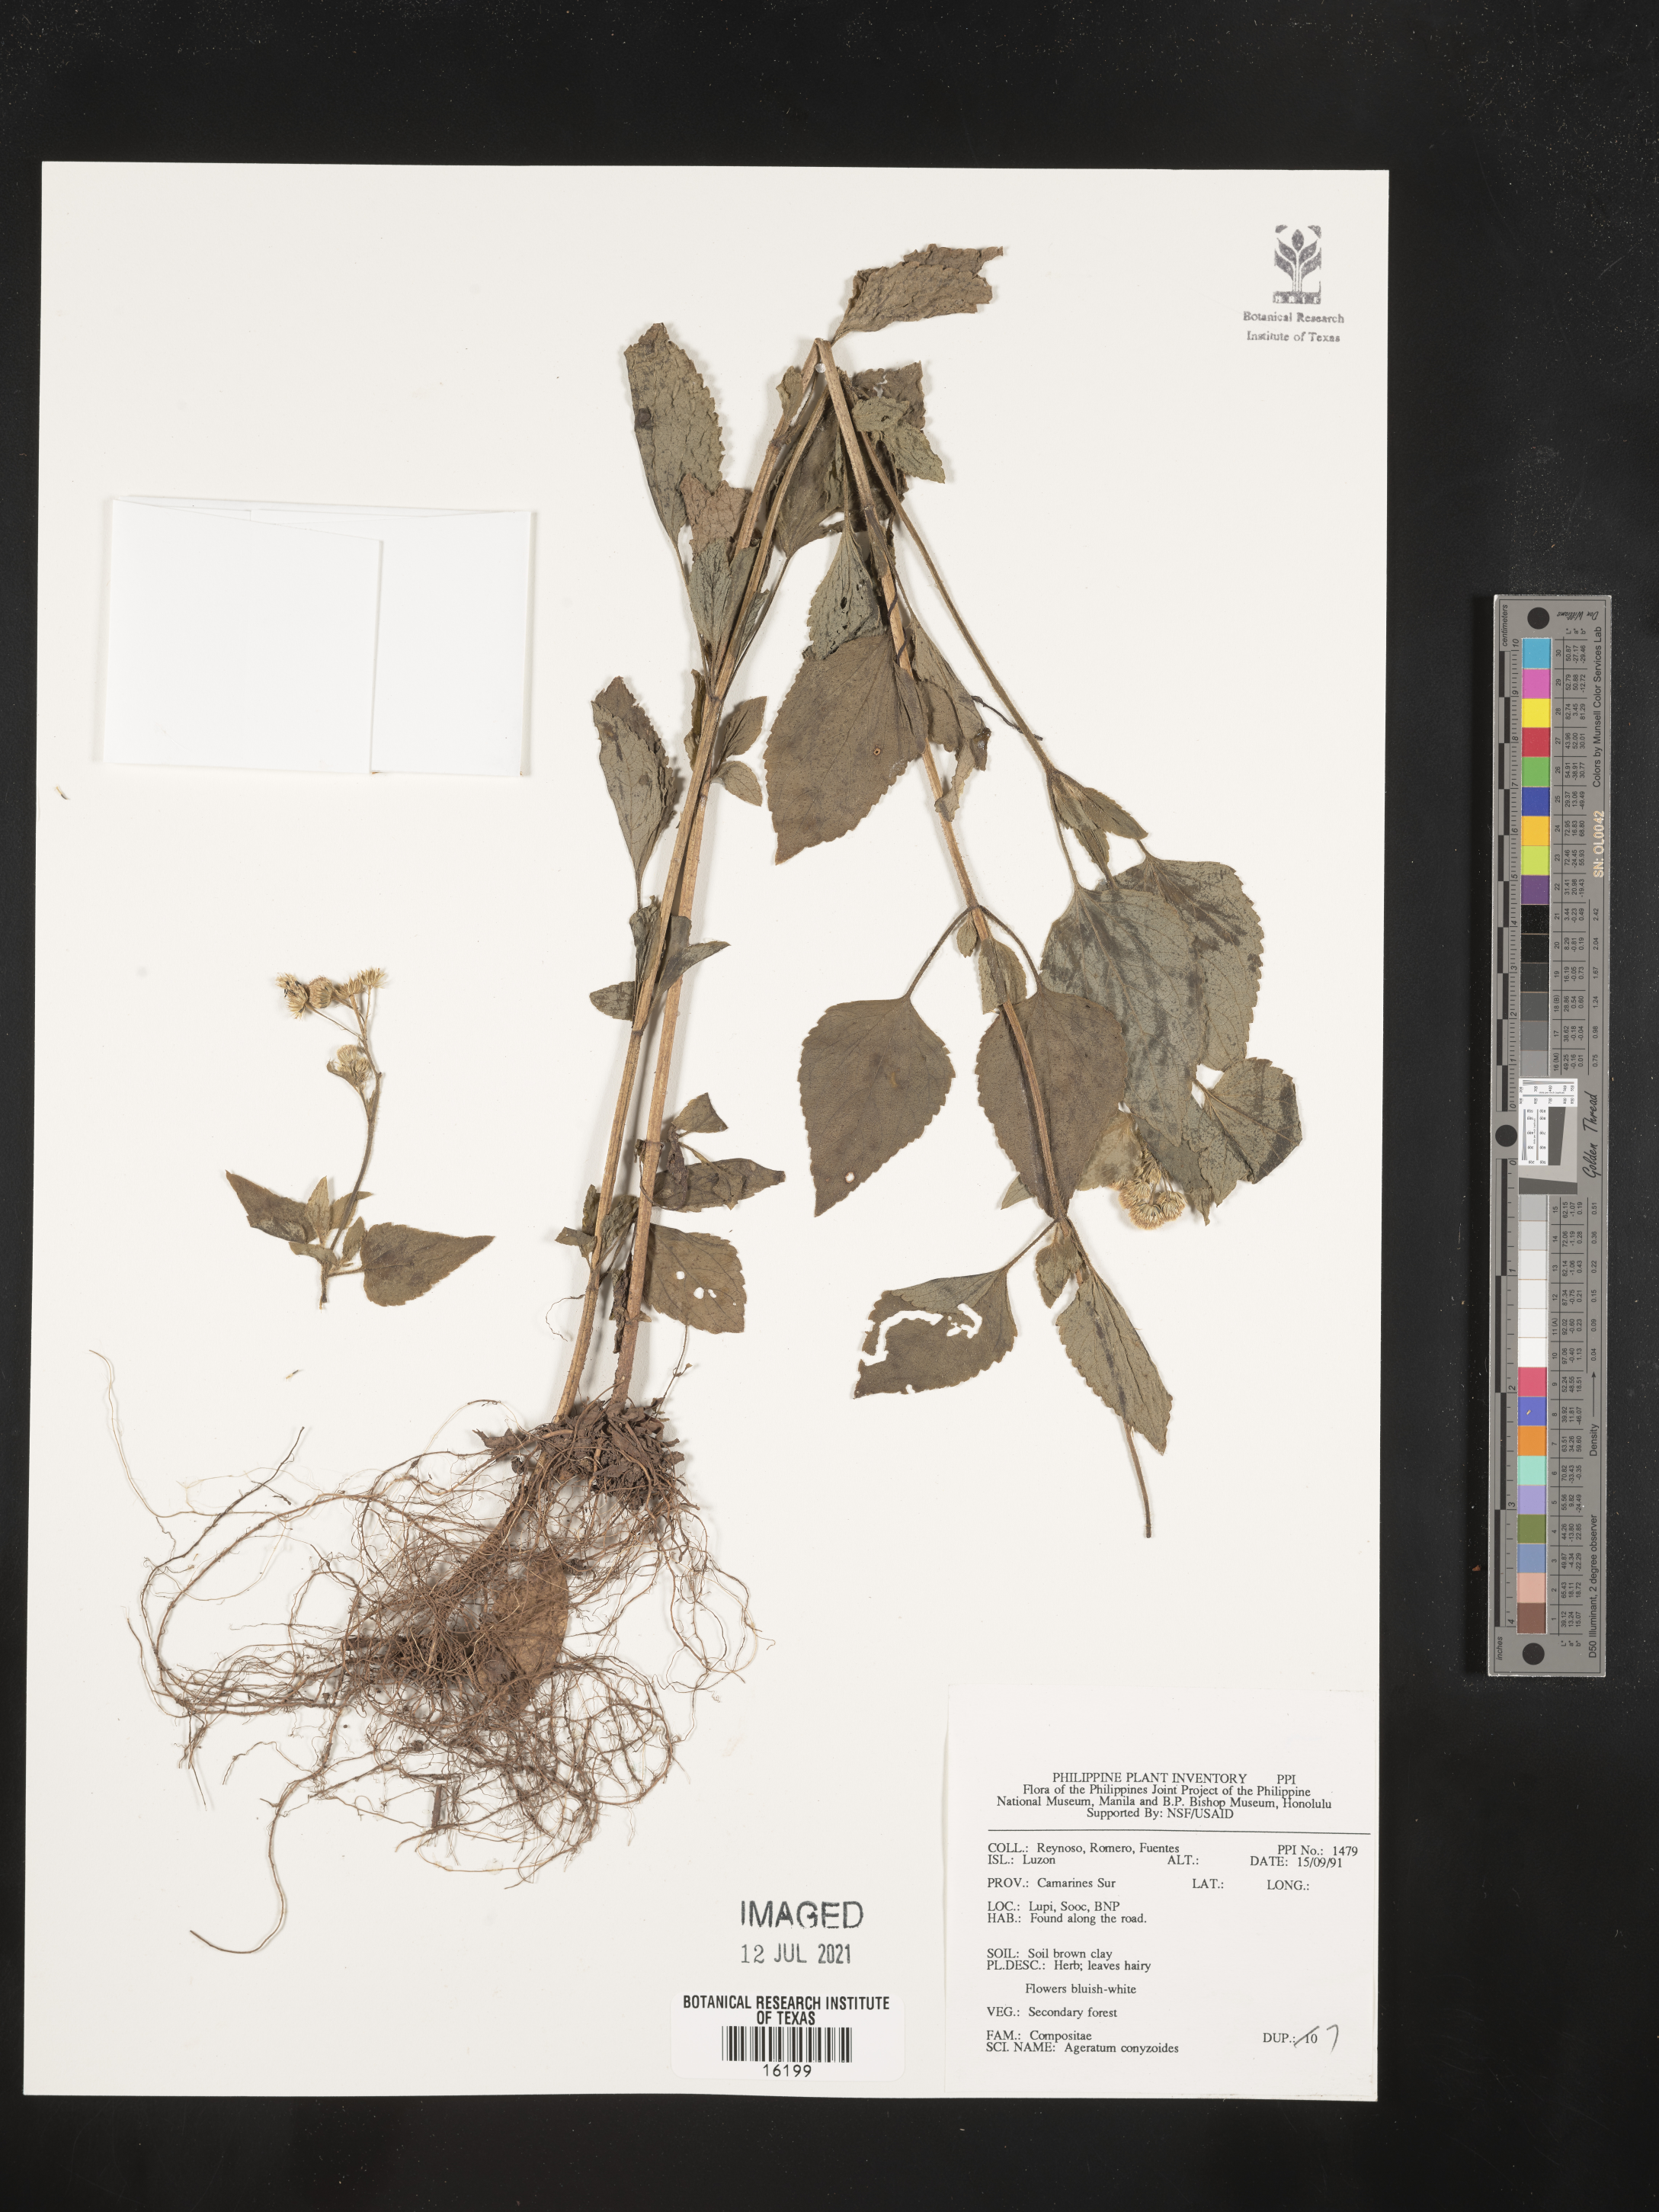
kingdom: Plantae
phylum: Tracheophyta
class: Magnoliopsida
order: Asterales
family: Asteraceae
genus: Chromolaena
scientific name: Chromolaena corymbosa
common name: Caribbean thoroughwort
